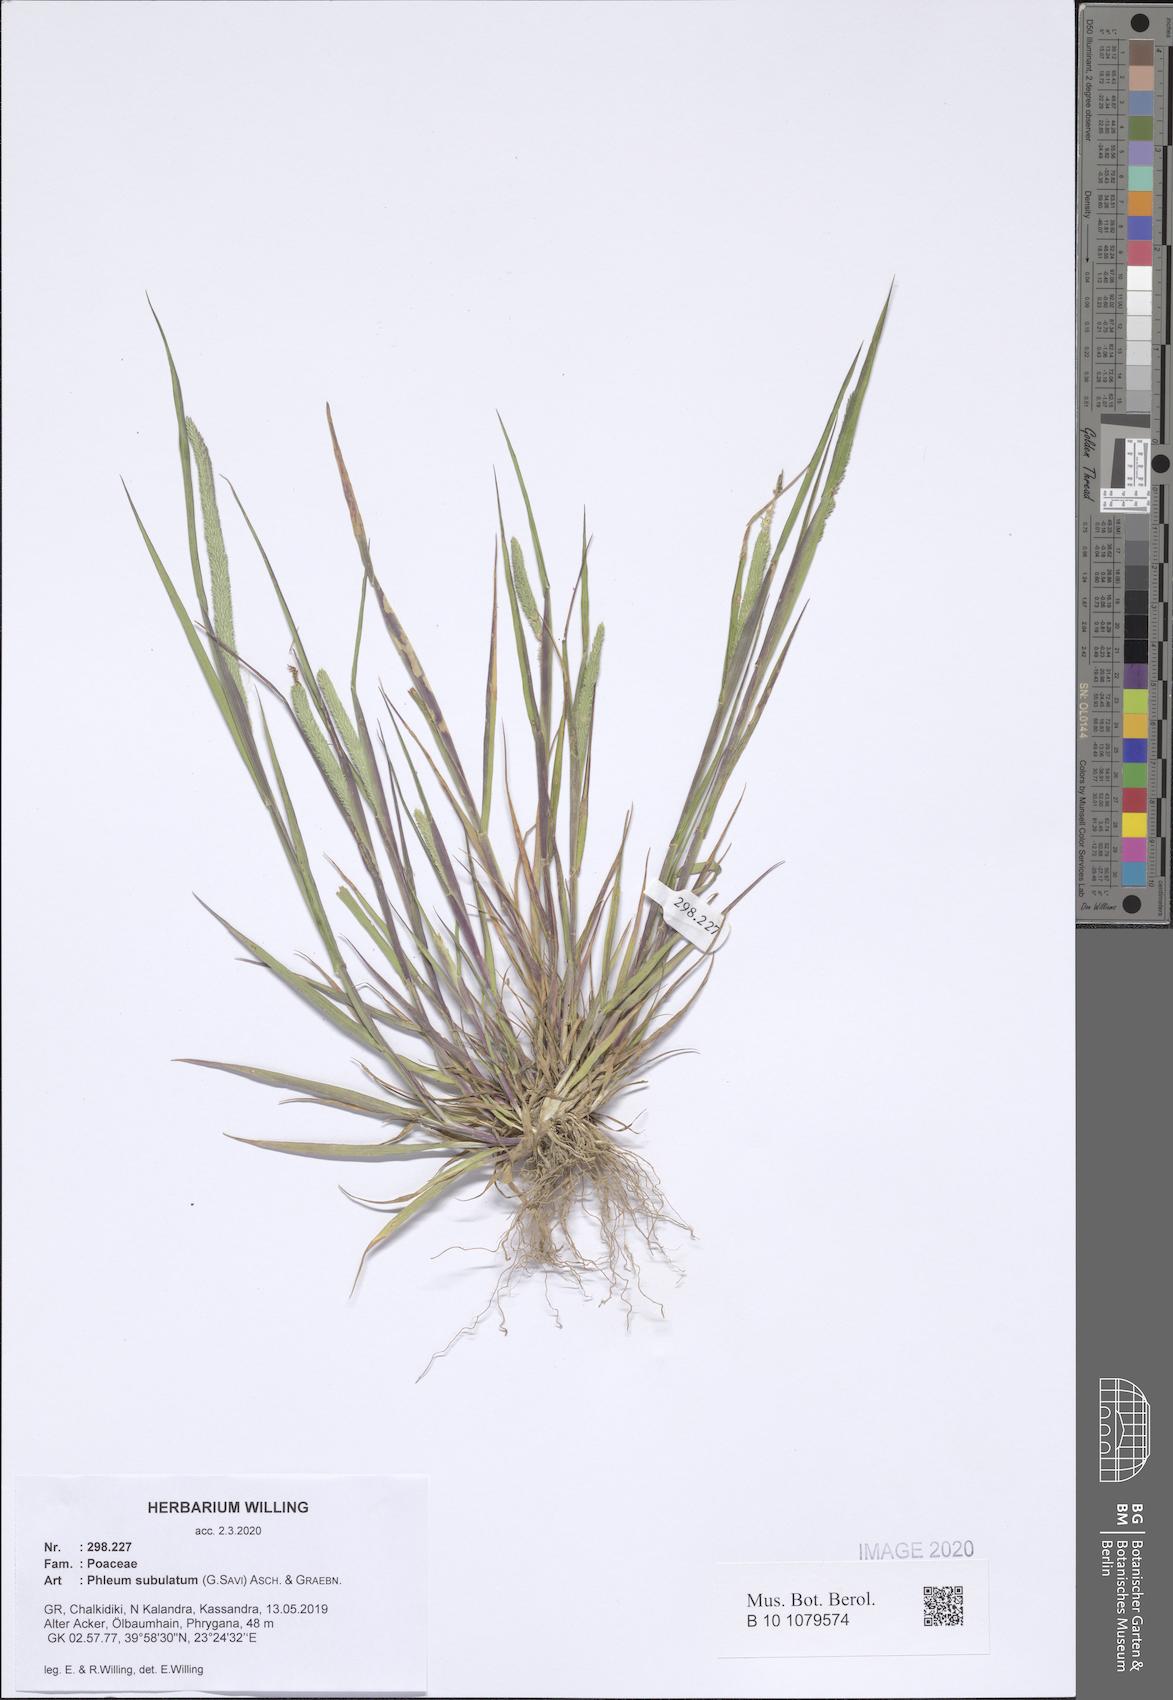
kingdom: Plantae
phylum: Tracheophyta
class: Liliopsida
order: Poales
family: Poaceae
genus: Phleum
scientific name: Phleum subulatum
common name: Italian timothy
